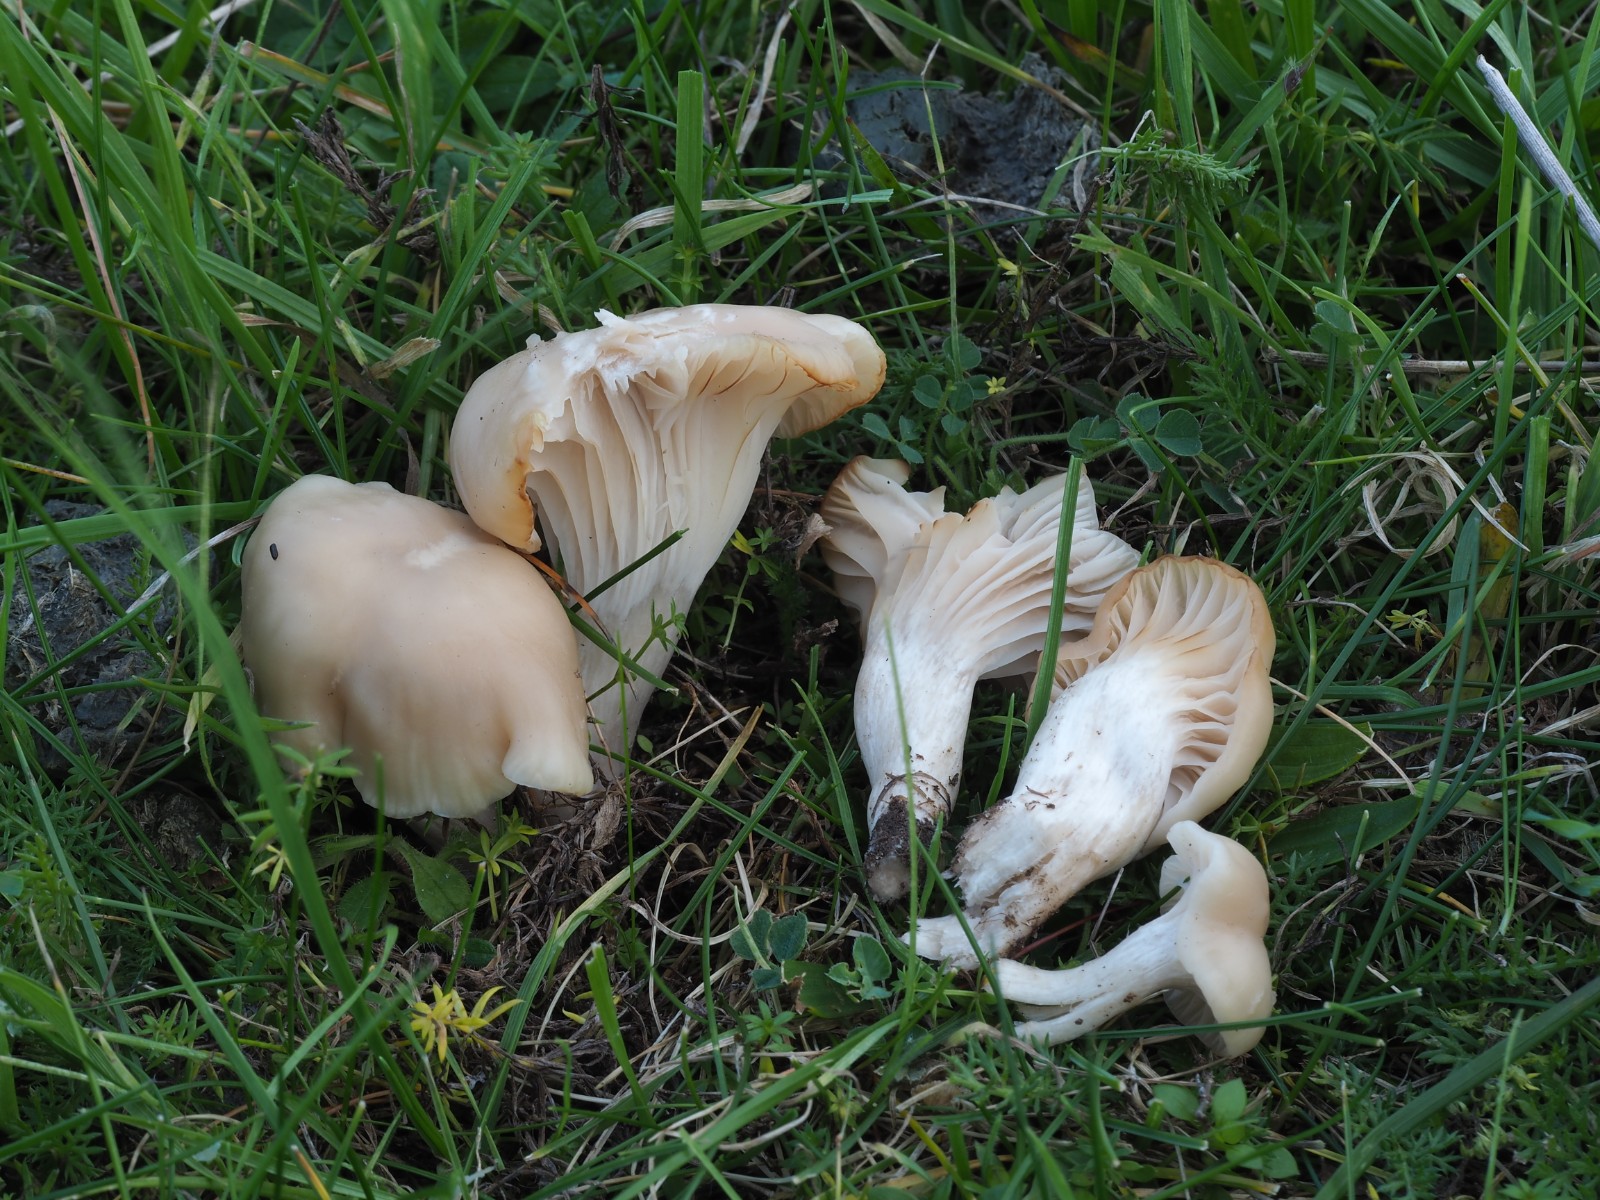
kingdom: Fungi
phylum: Basidiomycota
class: Agaricomycetes
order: Agaricales
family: Hygrophoraceae
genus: Cuphophyllus
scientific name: Cuphophyllus virgineus
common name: isabella-vokshat
